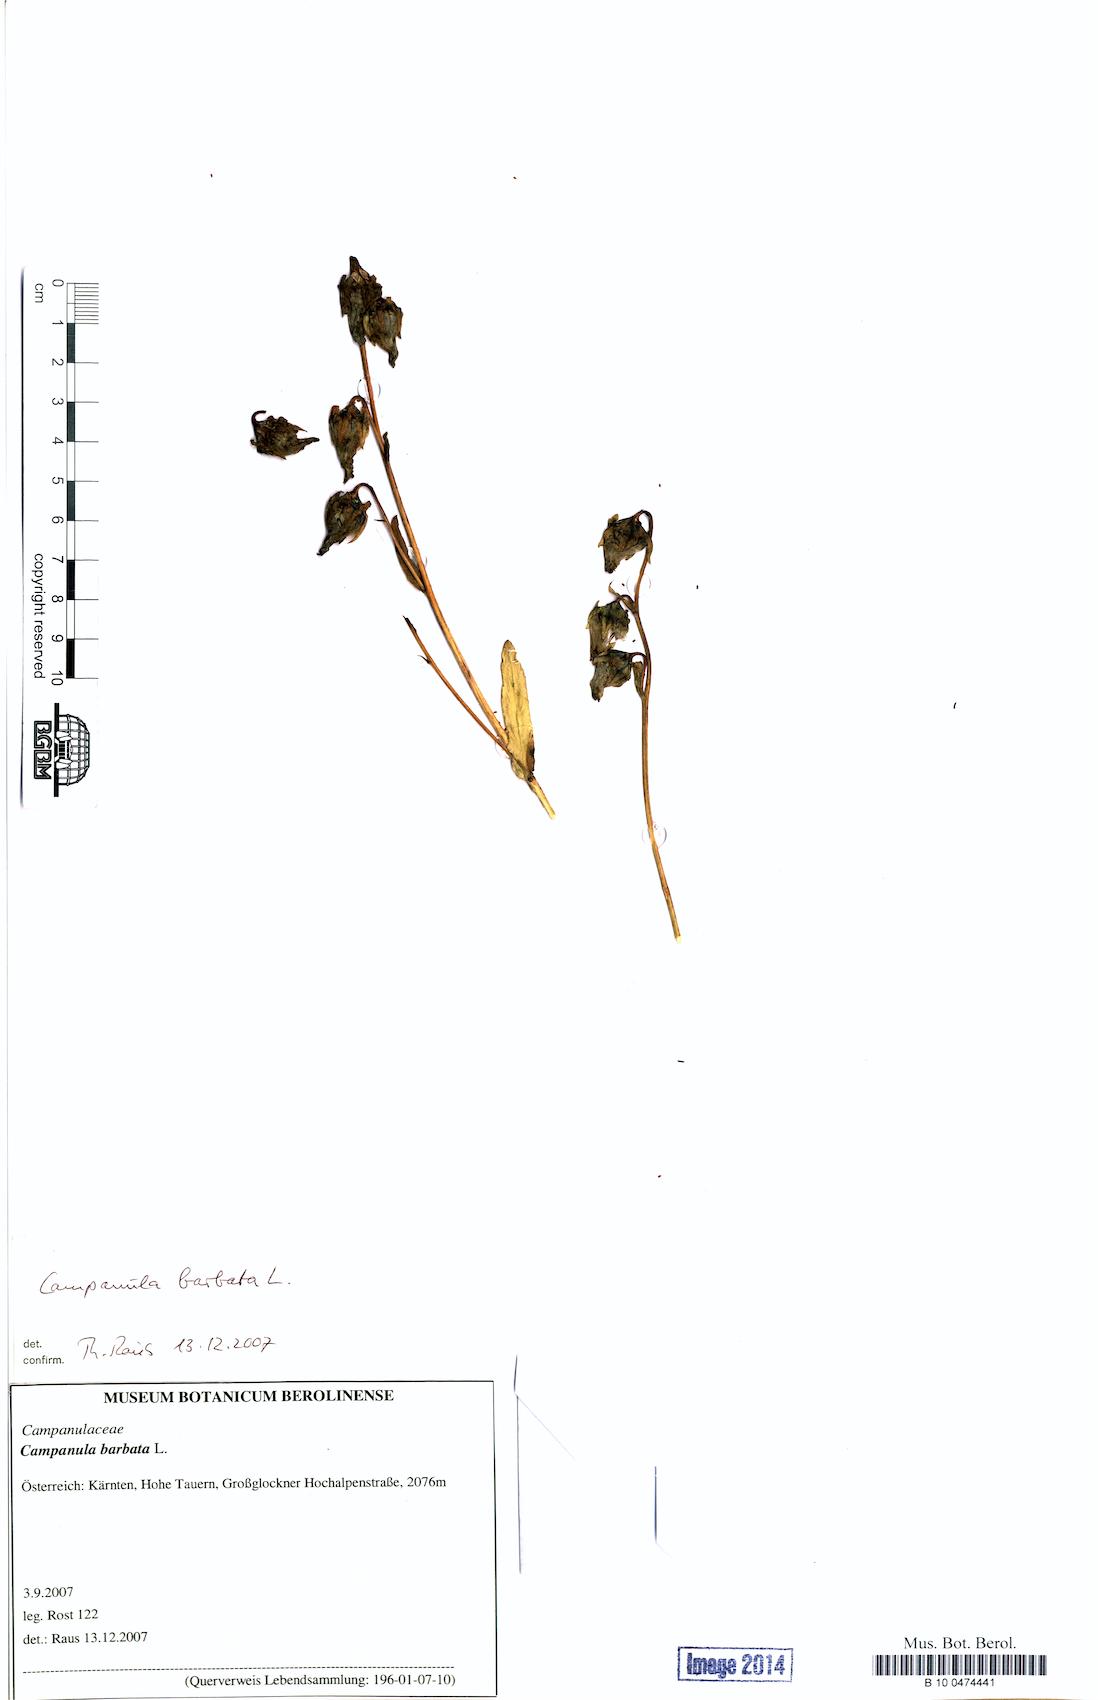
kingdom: Plantae
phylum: Tracheophyta
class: Magnoliopsida
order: Asterales
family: Campanulaceae
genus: Campanula
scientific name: Campanula barbata
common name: Bearded bellflower
